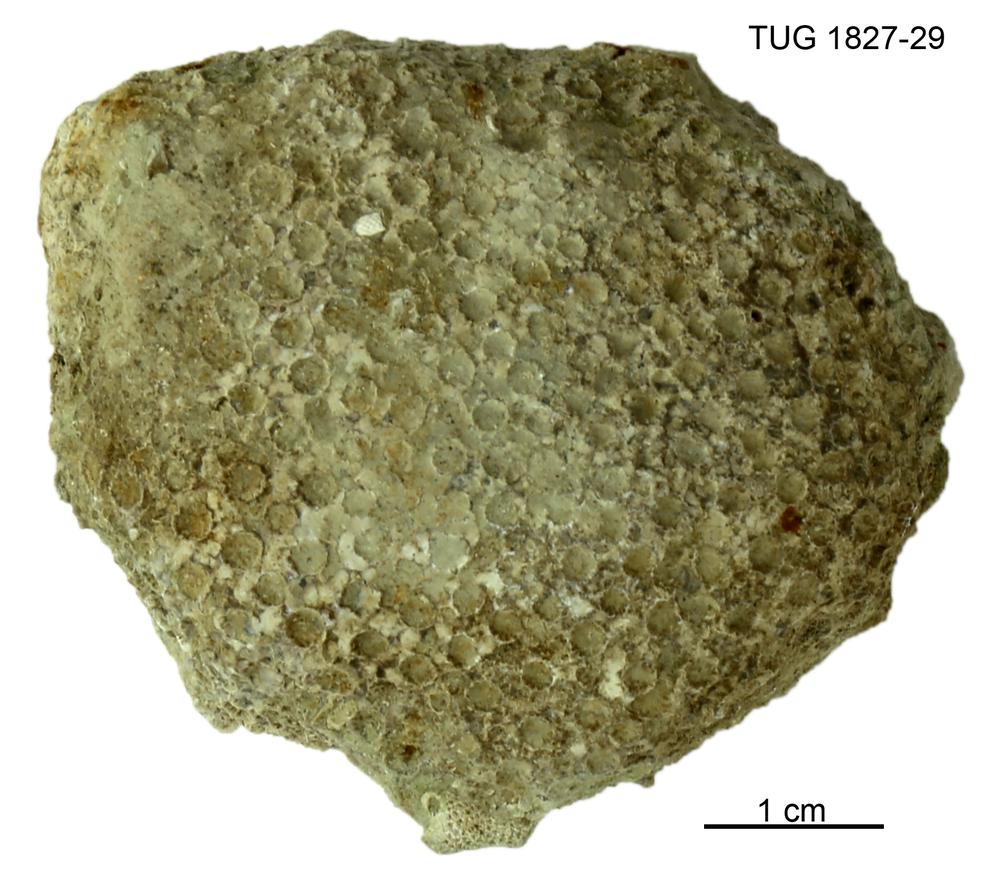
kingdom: Animalia
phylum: Xenacoelomorpha
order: Acoela
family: Proporidae
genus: Propora
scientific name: Propora
